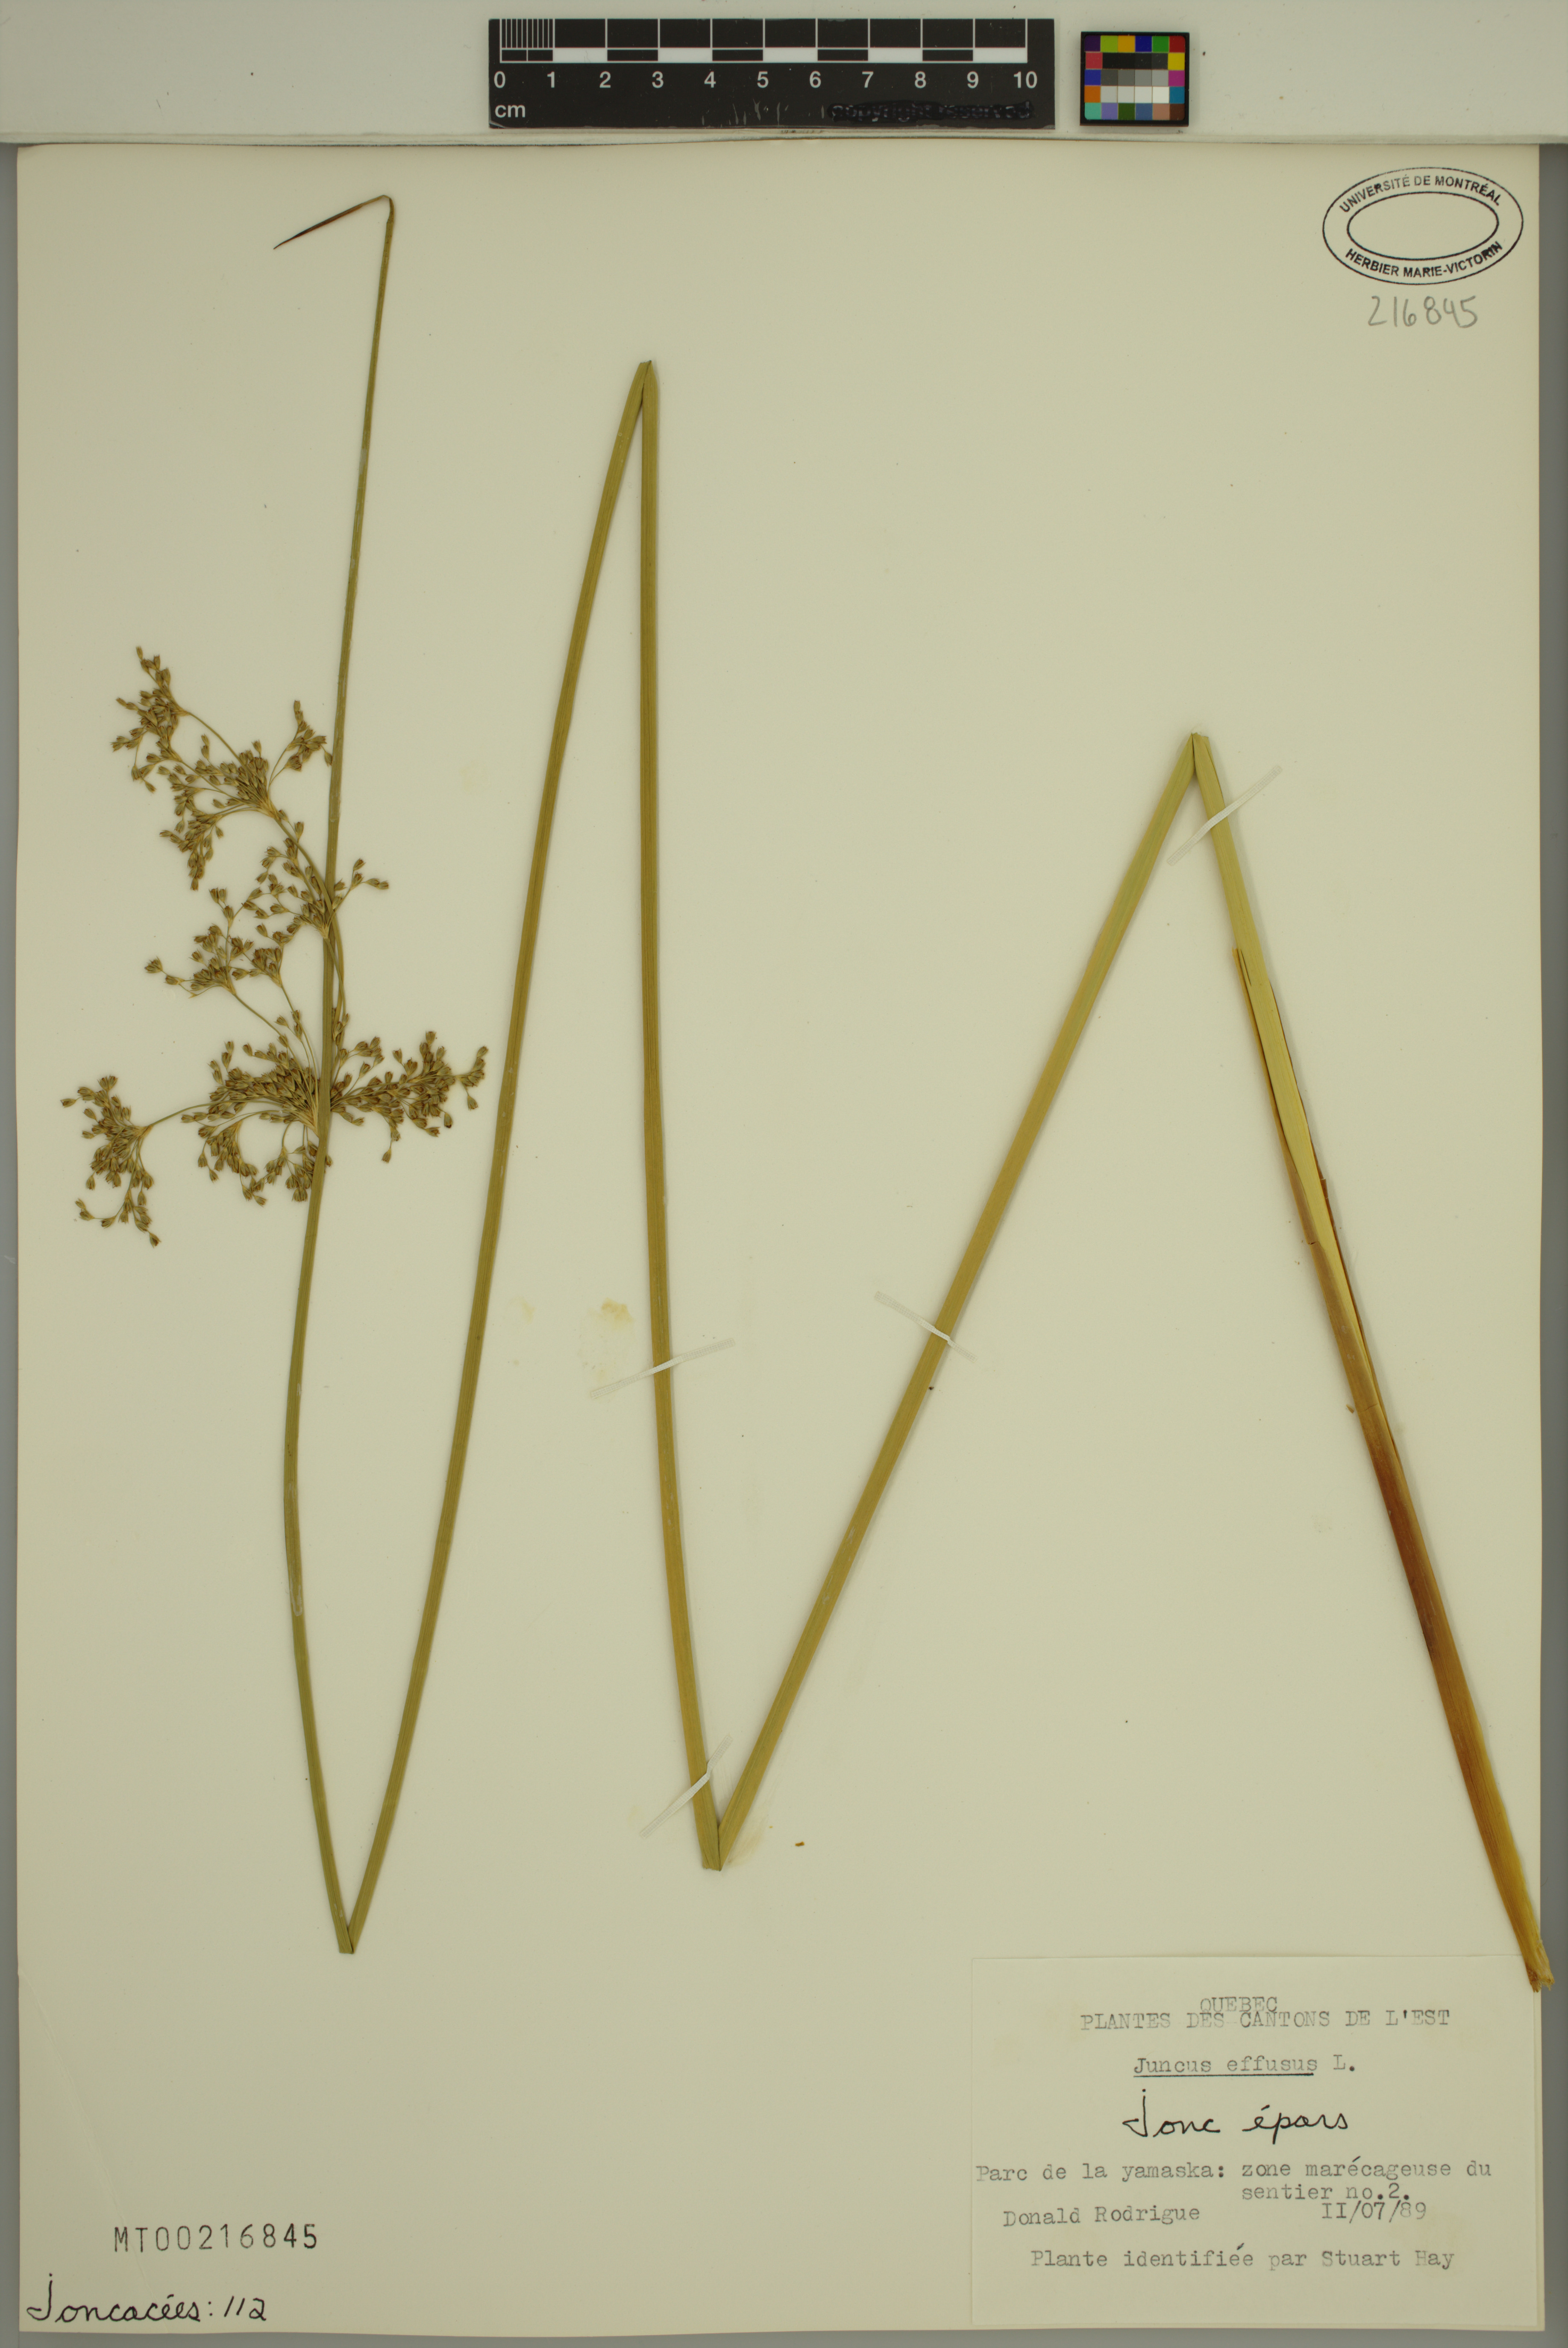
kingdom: Plantae
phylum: Tracheophyta
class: Liliopsida
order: Poales
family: Juncaceae
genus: Juncus
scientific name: Juncus effusus
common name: Soft rush
